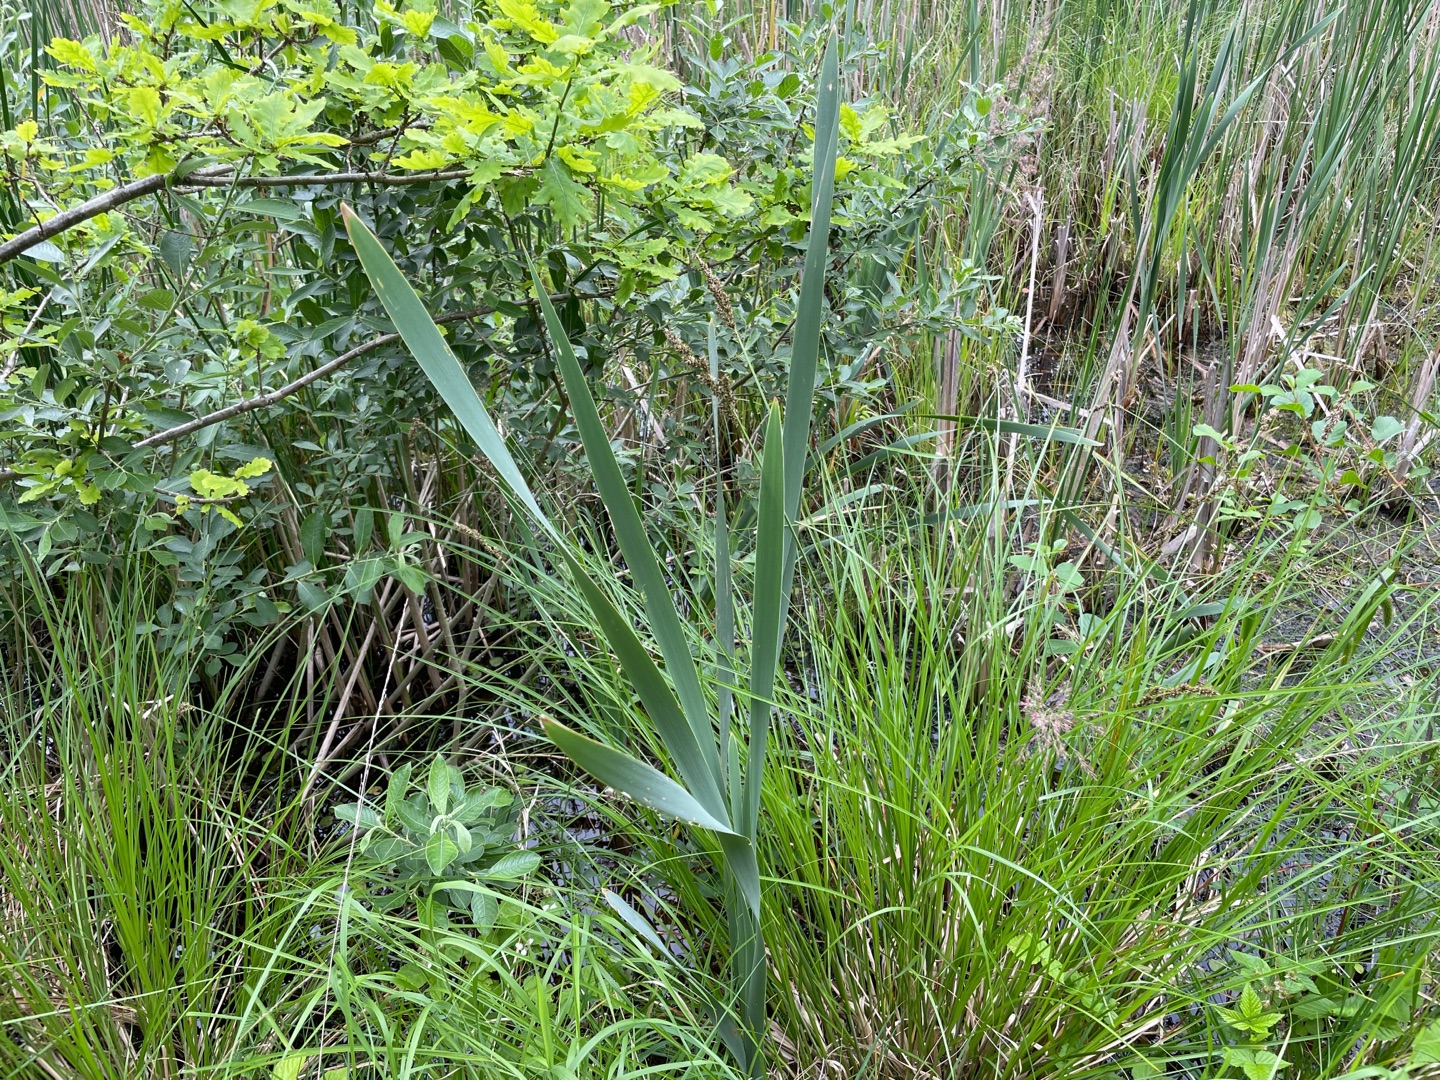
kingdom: Plantae
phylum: Tracheophyta
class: Liliopsida
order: Poales
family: Typhaceae
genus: Typha
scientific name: Typha latifolia
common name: Bredbladet dunhammer
